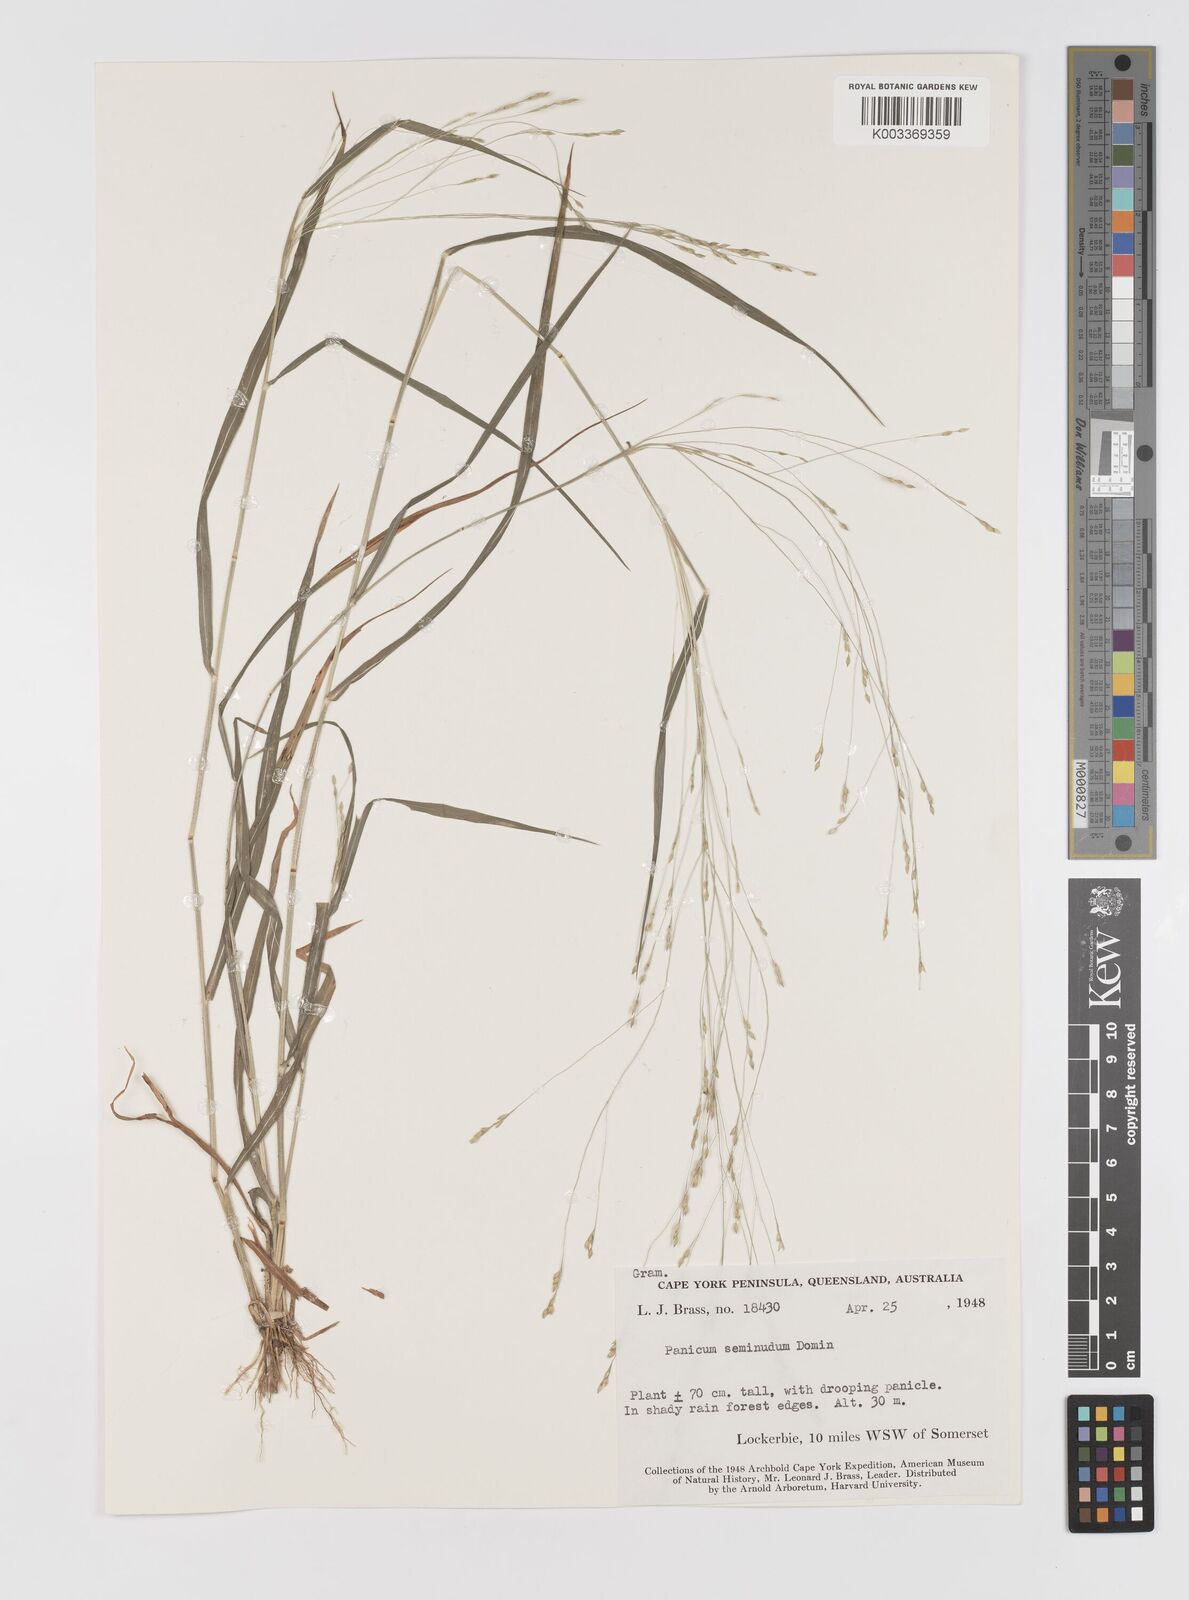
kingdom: Plantae
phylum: Tracheophyta
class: Liliopsida
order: Poales
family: Poaceae
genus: Panicum
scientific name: Panicum seminudum
